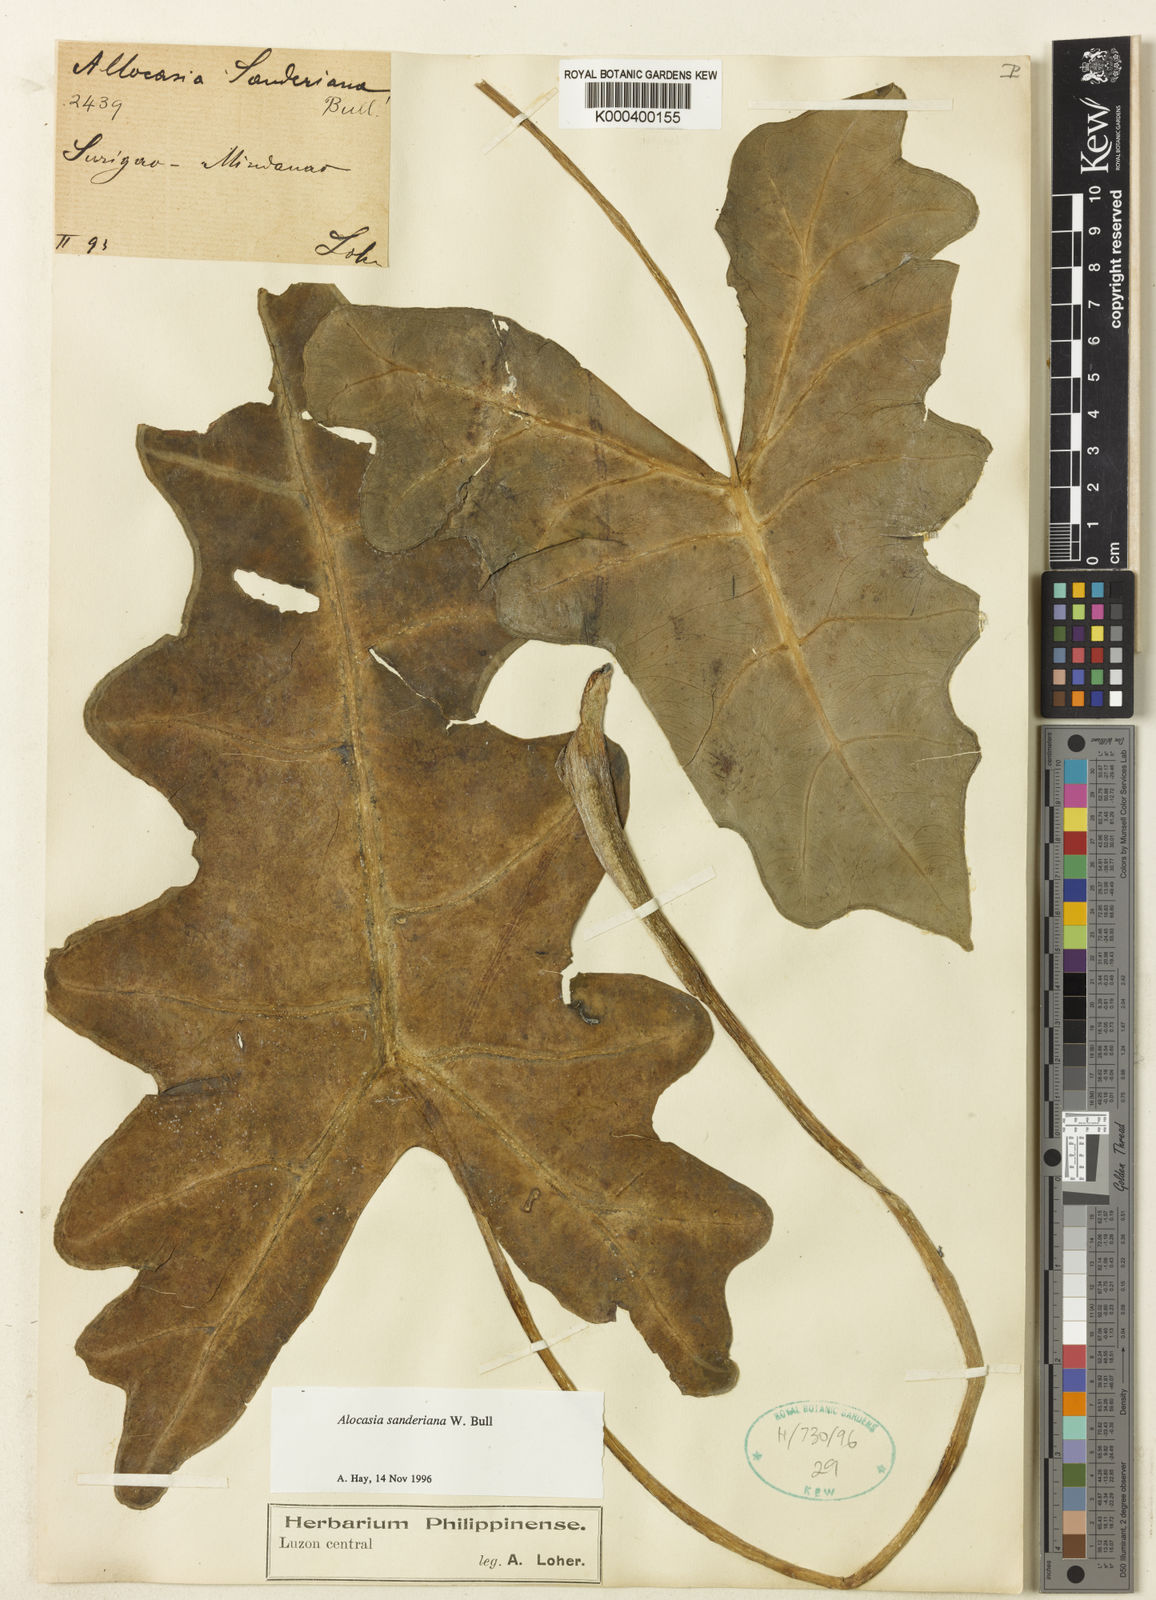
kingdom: Plantae
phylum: Tracheophyta
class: Liliopsida
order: Alismatales
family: Araceae
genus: Alocasia
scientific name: Alocasia sanderiana
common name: Sander's alocasia
